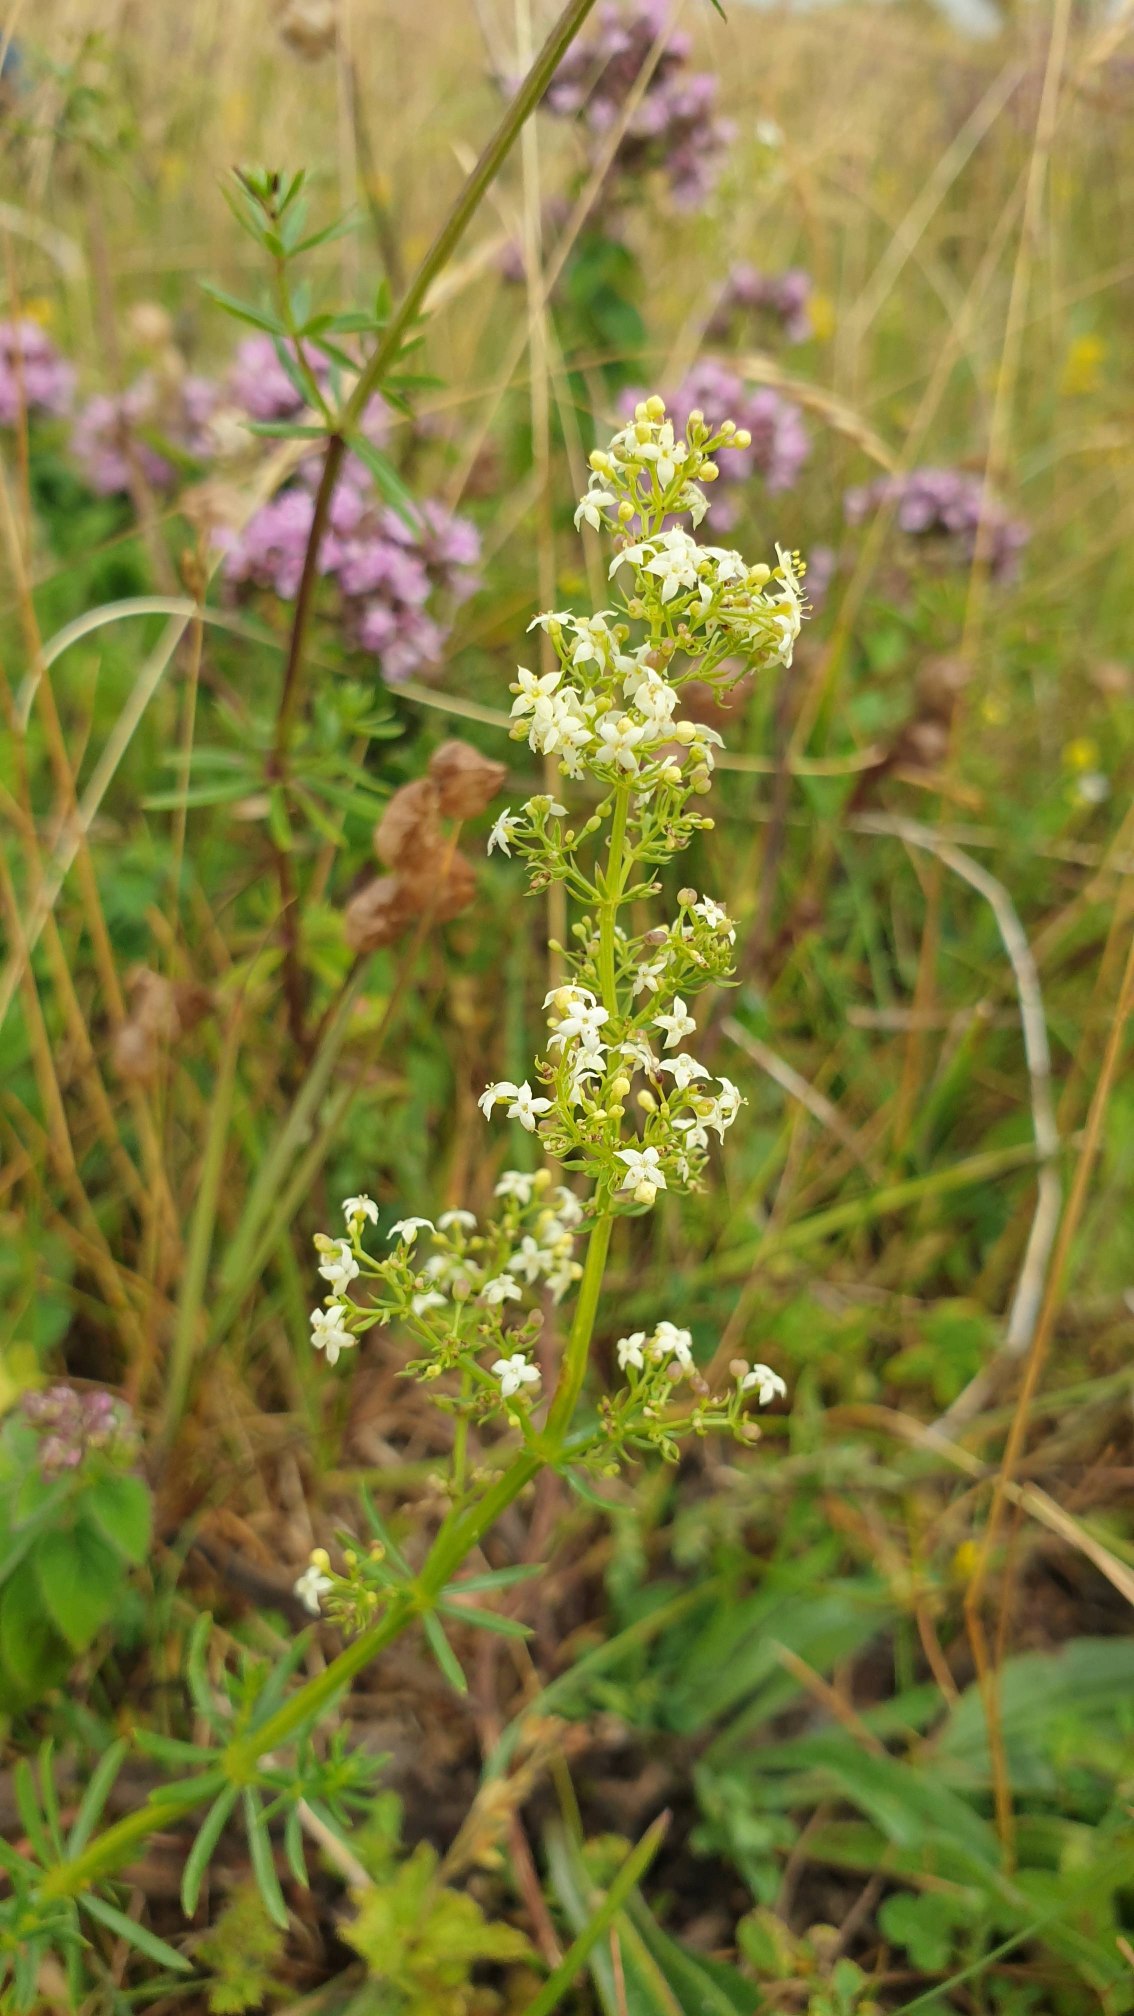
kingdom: Plantae
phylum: Tracheophyta
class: Magnoliopsida
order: Gentianales
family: Rubiaceae
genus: Galium
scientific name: Galium mollugo
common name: Hvid snerre
